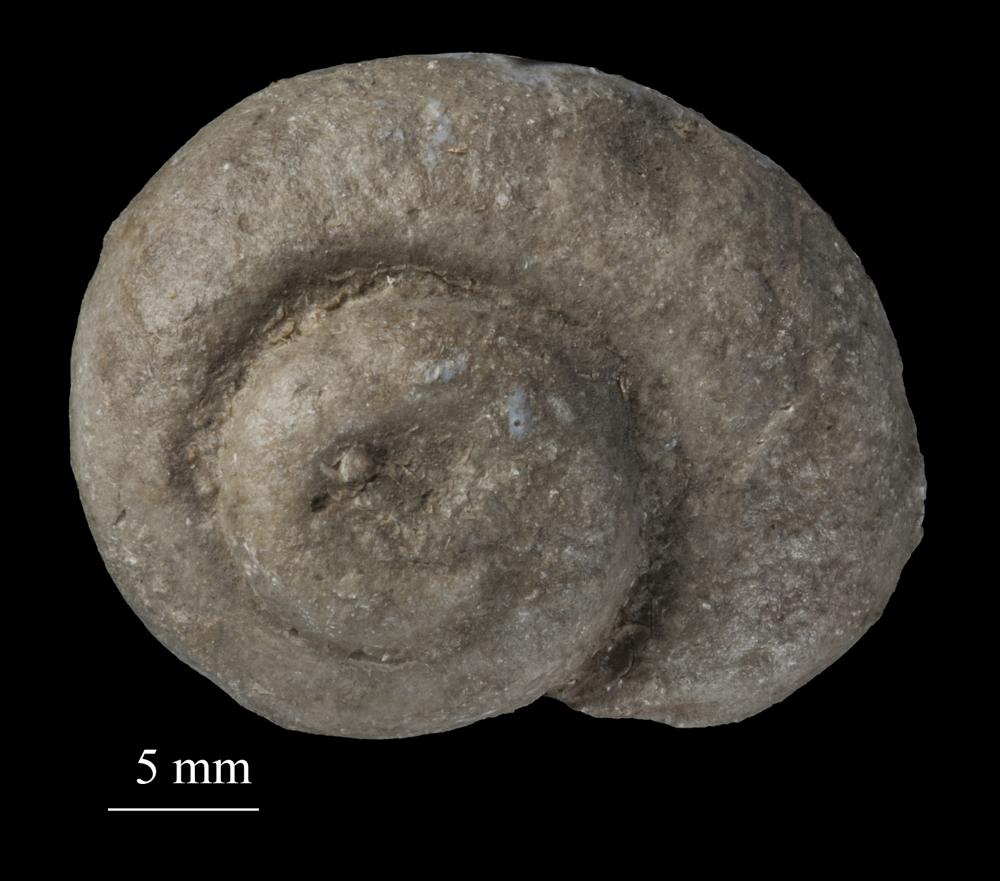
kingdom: Animalia
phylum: Mollusca
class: Gastropoda
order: Neogastropoda
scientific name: Neogastropoda
